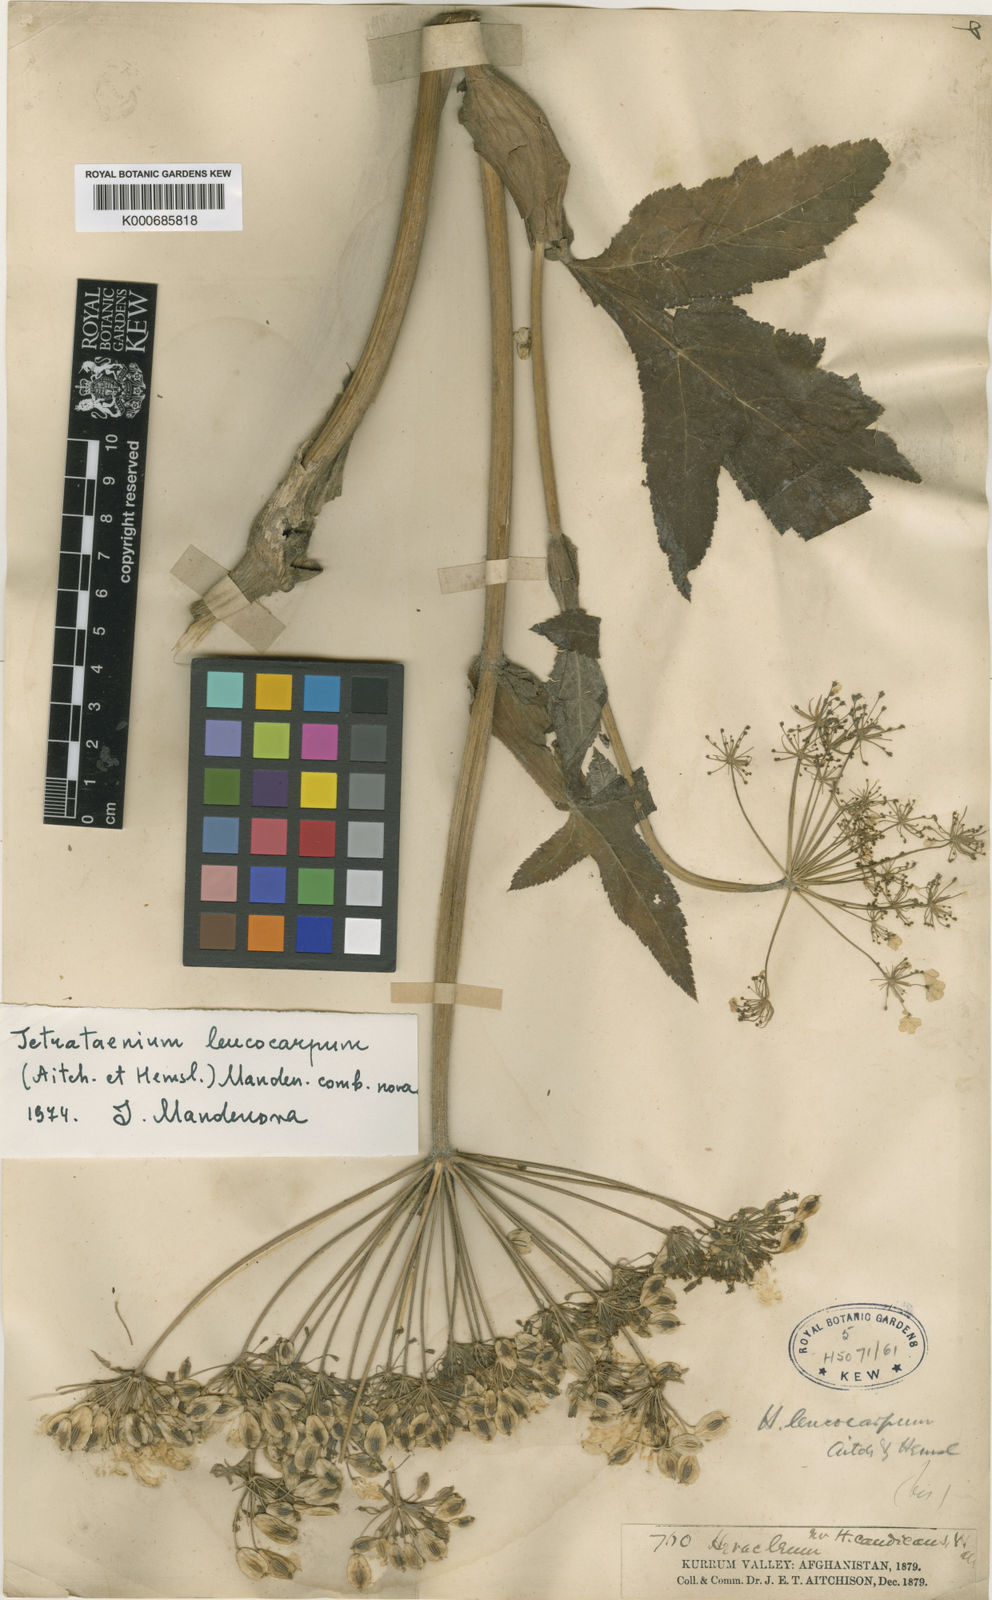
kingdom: Plantae
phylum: Tracheophyta
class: Magnoliopsida
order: Apiales
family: Apiaceae
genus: Tetrataenium
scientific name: Tetrataenium leucocarpum
